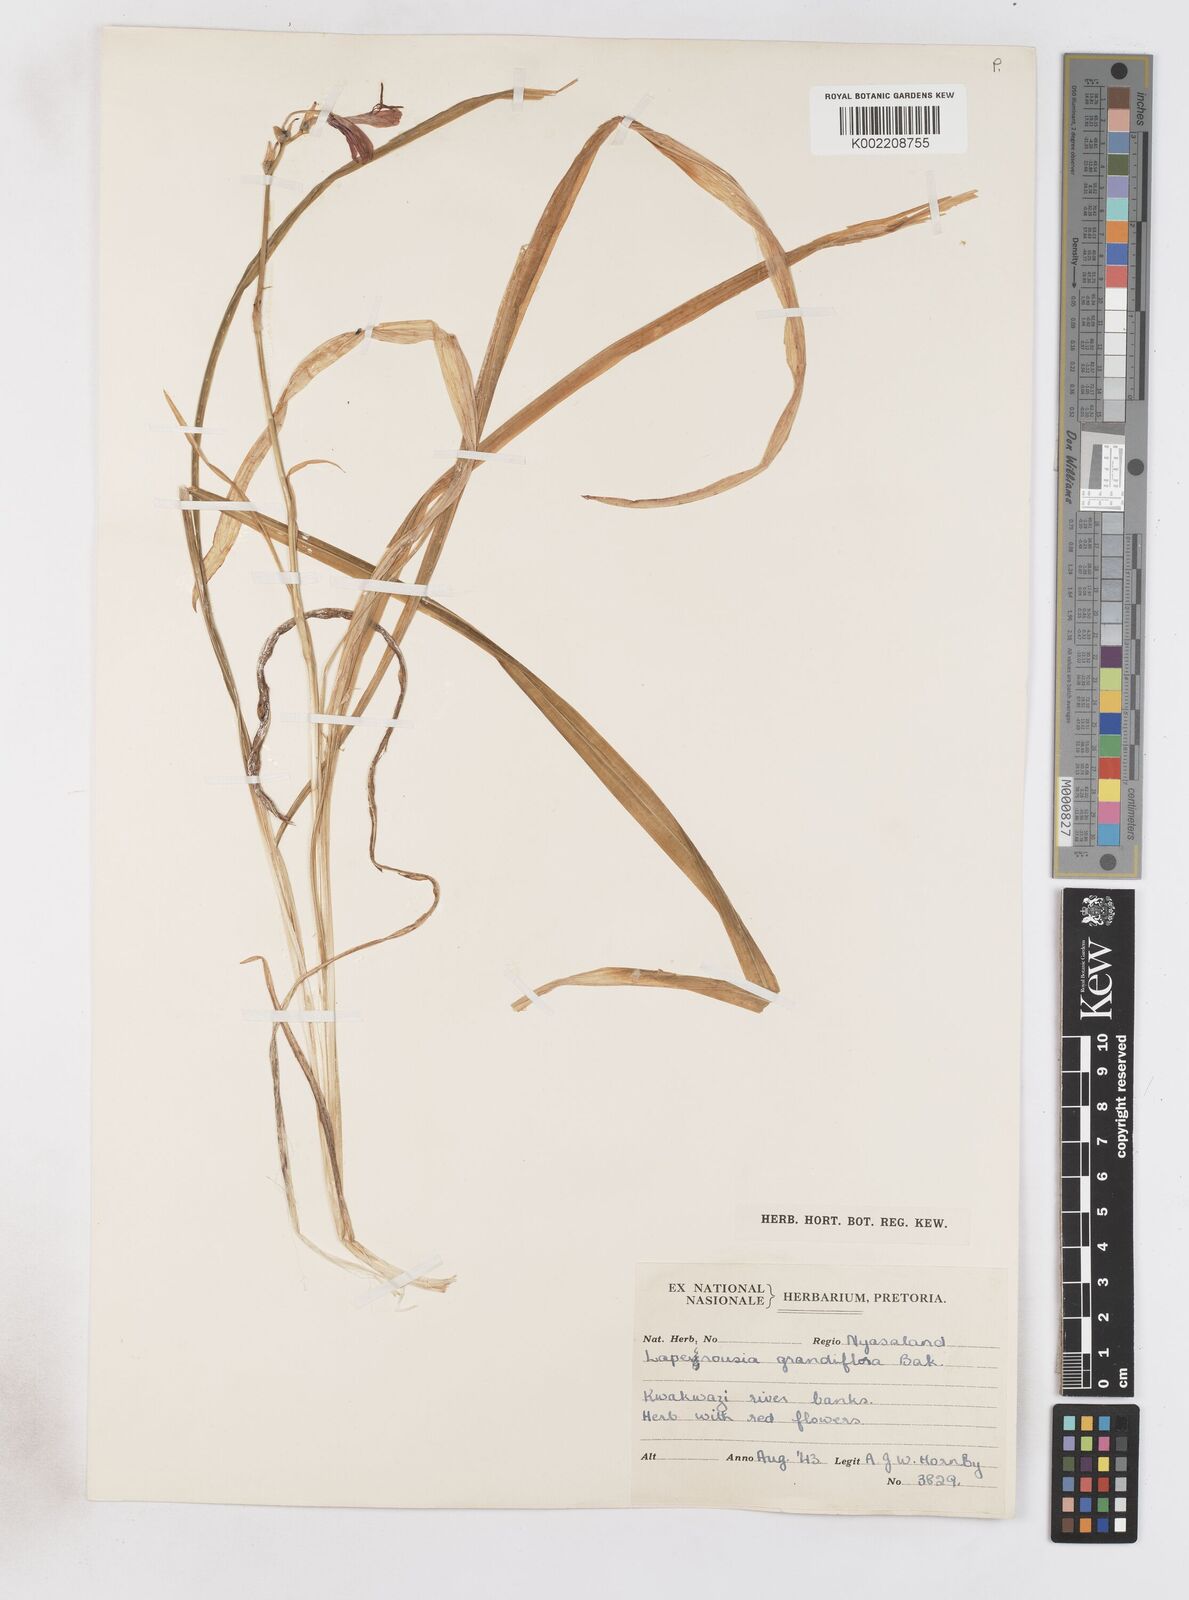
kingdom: Plantae
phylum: Tracheophyta
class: Liliopsida
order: Asparagales
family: Iridaceae
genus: Freesia
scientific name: Freesia grandiflora
